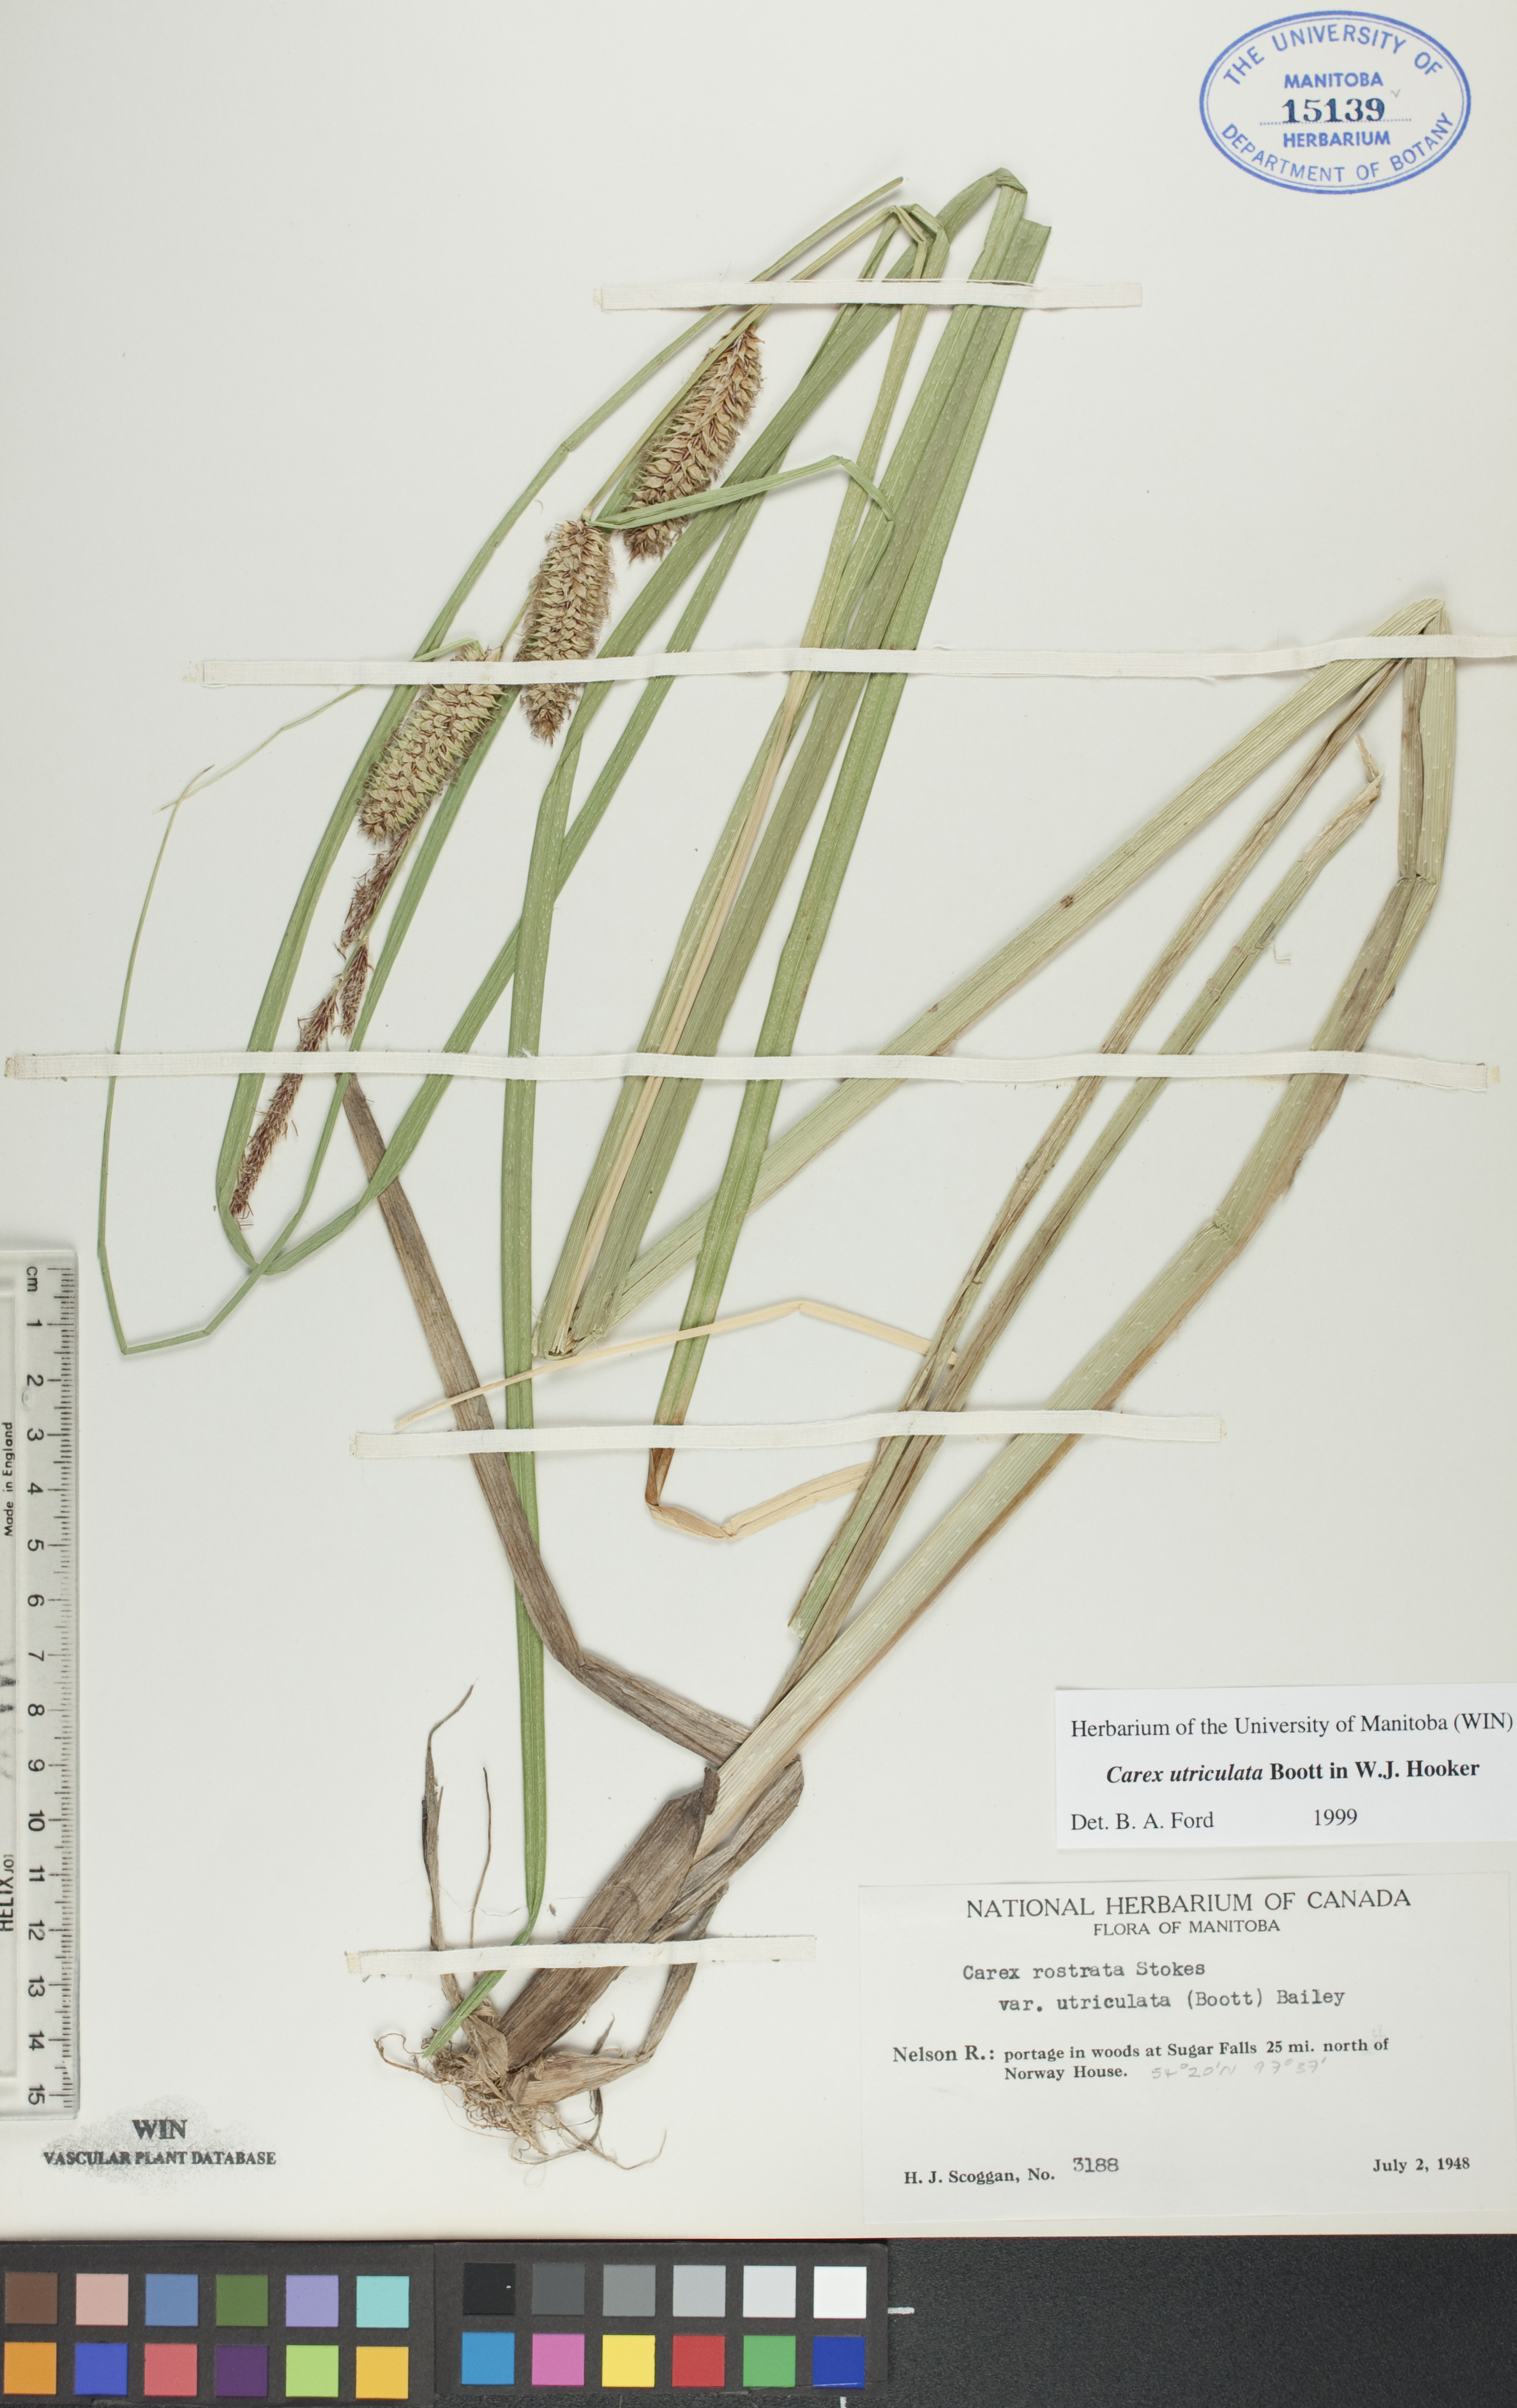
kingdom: Plantae
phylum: Tracheophyta
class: Liliopsida
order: Poales
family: Cyperaceae
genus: Carex
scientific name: Carex utriculata
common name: Beaked sedge
